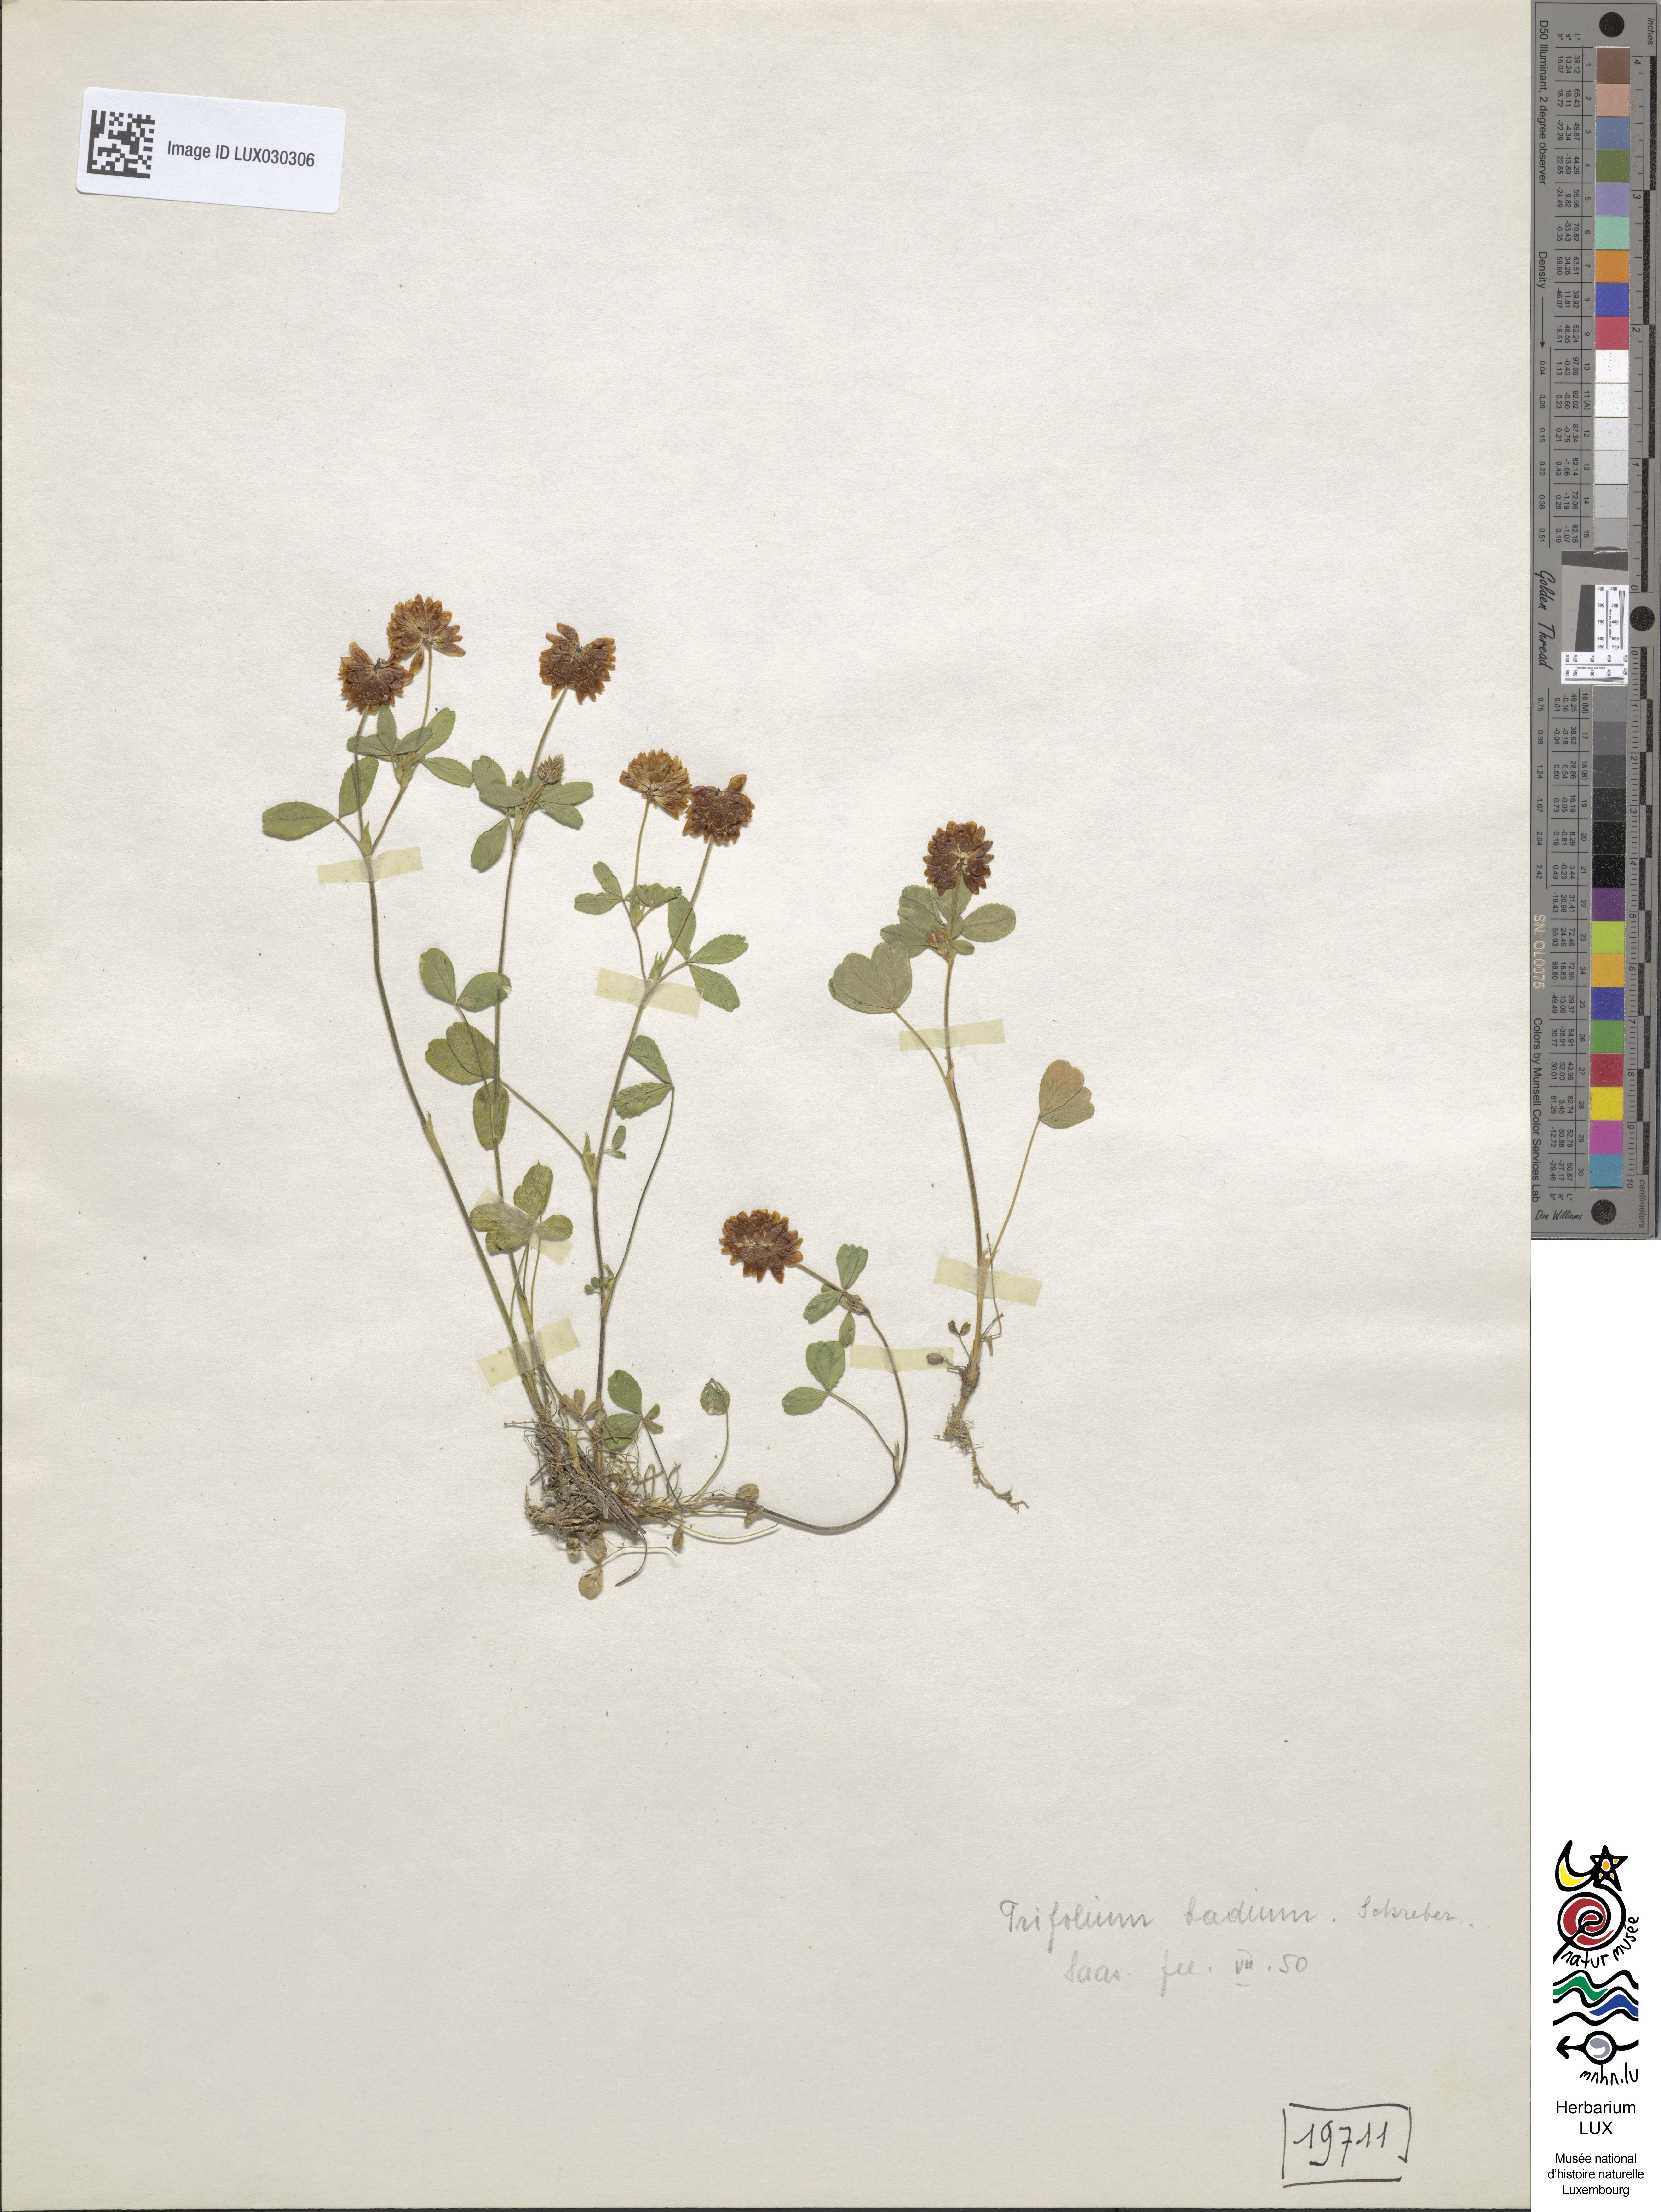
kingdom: Plantae
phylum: Tracheophyta
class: Magnoliopsida
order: Fabales
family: Fabaceae
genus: Trifolium
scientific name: Trifolium badium
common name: Brown clover
